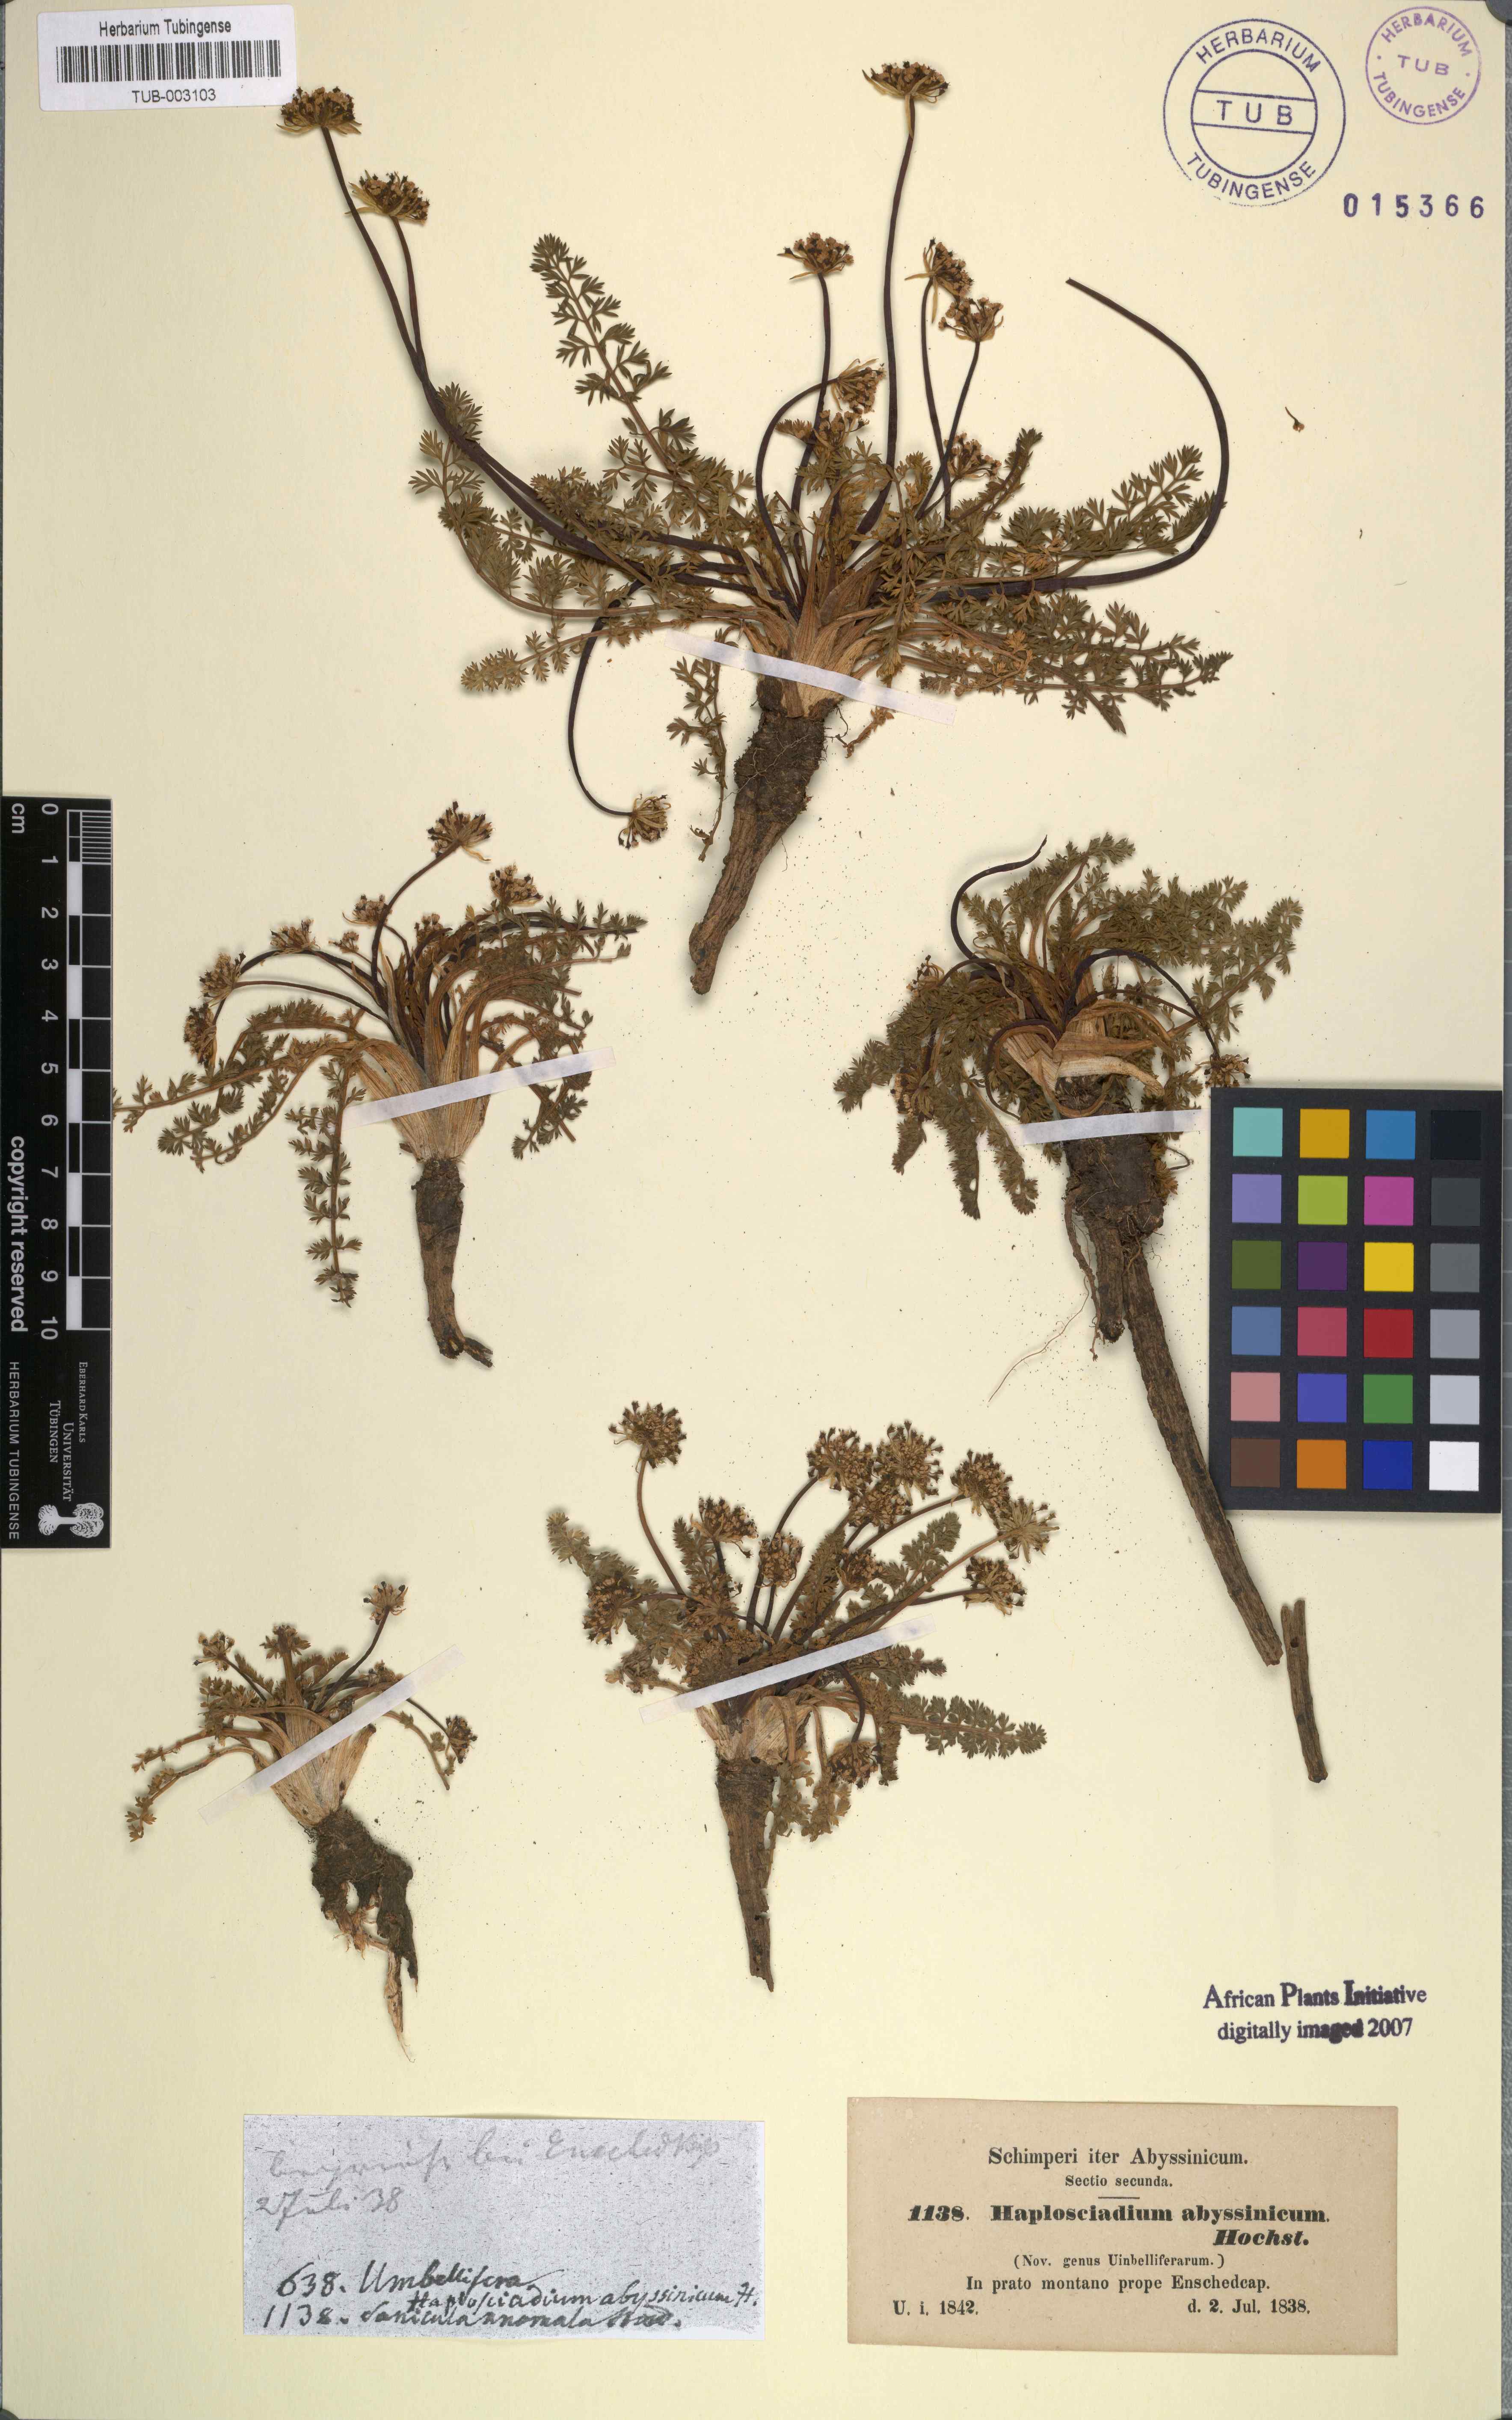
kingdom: Plantae
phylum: Tracheophyta
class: Magnoliopsida
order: Apiales
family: Apiaceae
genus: Haplosciadium
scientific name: Haplosciadium abyssinicum
